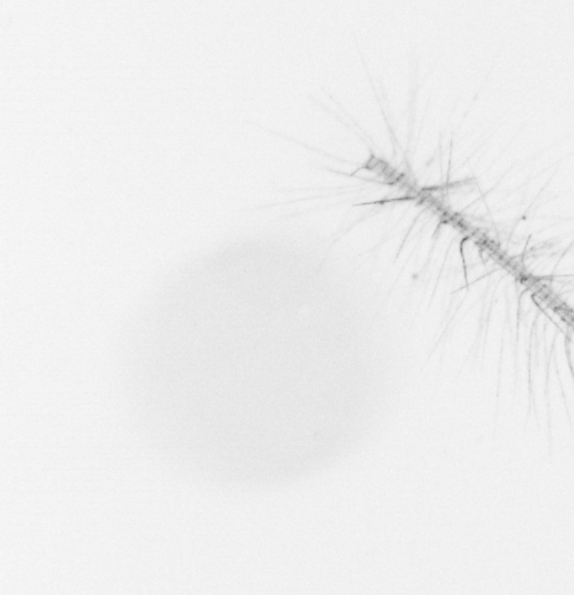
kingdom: Chromista
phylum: Ochrophyta
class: Bacillariophyceae
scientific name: Bacillariophyceae
